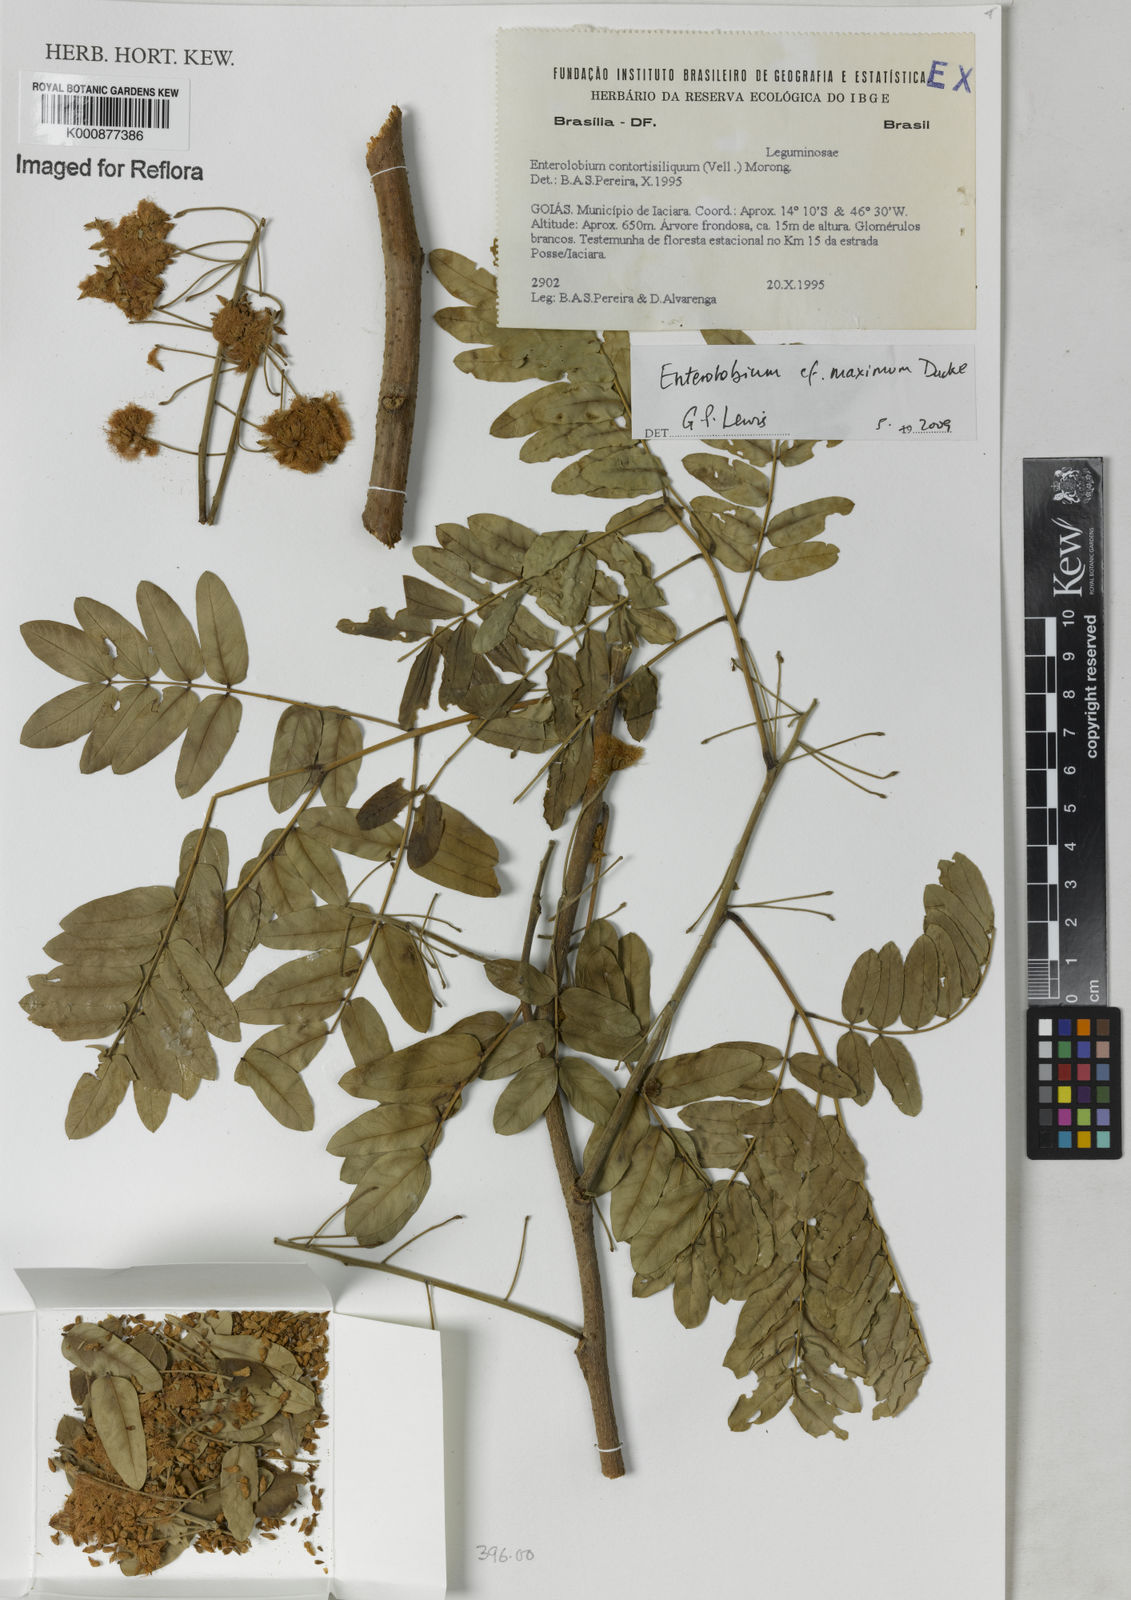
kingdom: Plantae
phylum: Tracheophyta
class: Magnoliopsida
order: Fabales
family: Fabaceae
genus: Enterolobium
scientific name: Enterolobium maximum
